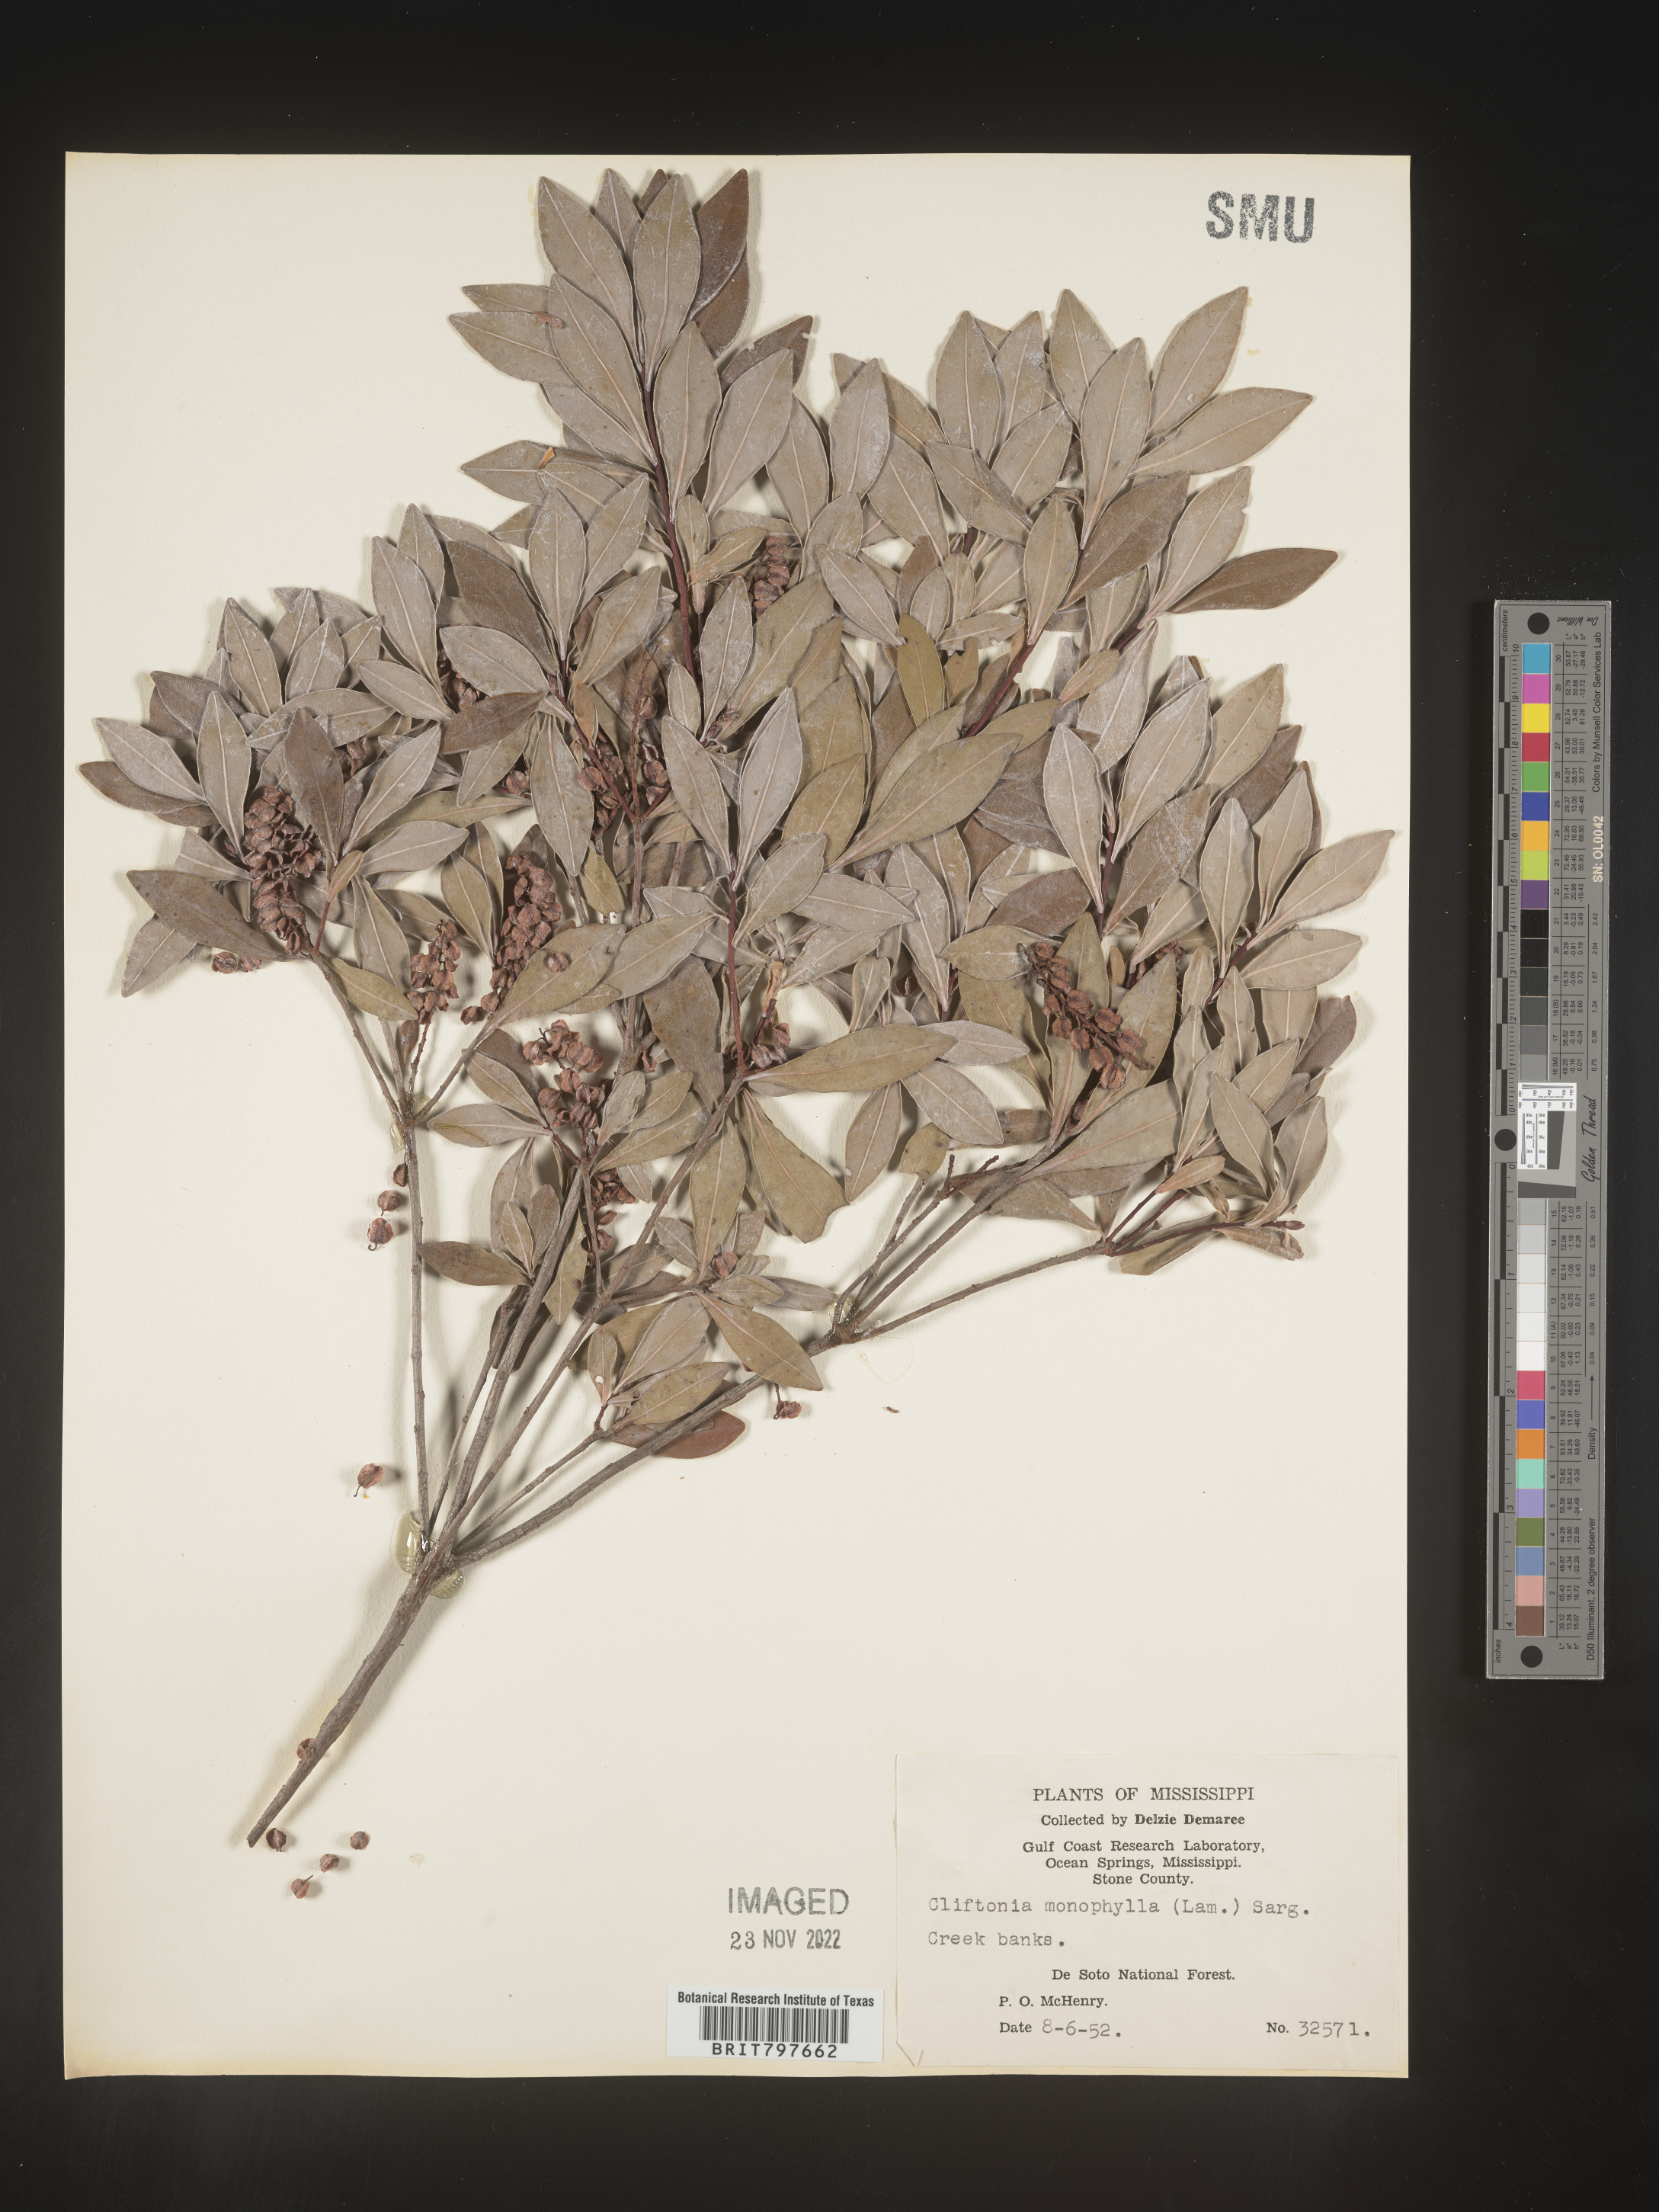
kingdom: Plantae
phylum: Tracheophyta
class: Magnoliopsida
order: Ericales
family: Cyrillaceae
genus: Cliftonia
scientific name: Cliftonia monophylla
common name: Titi
